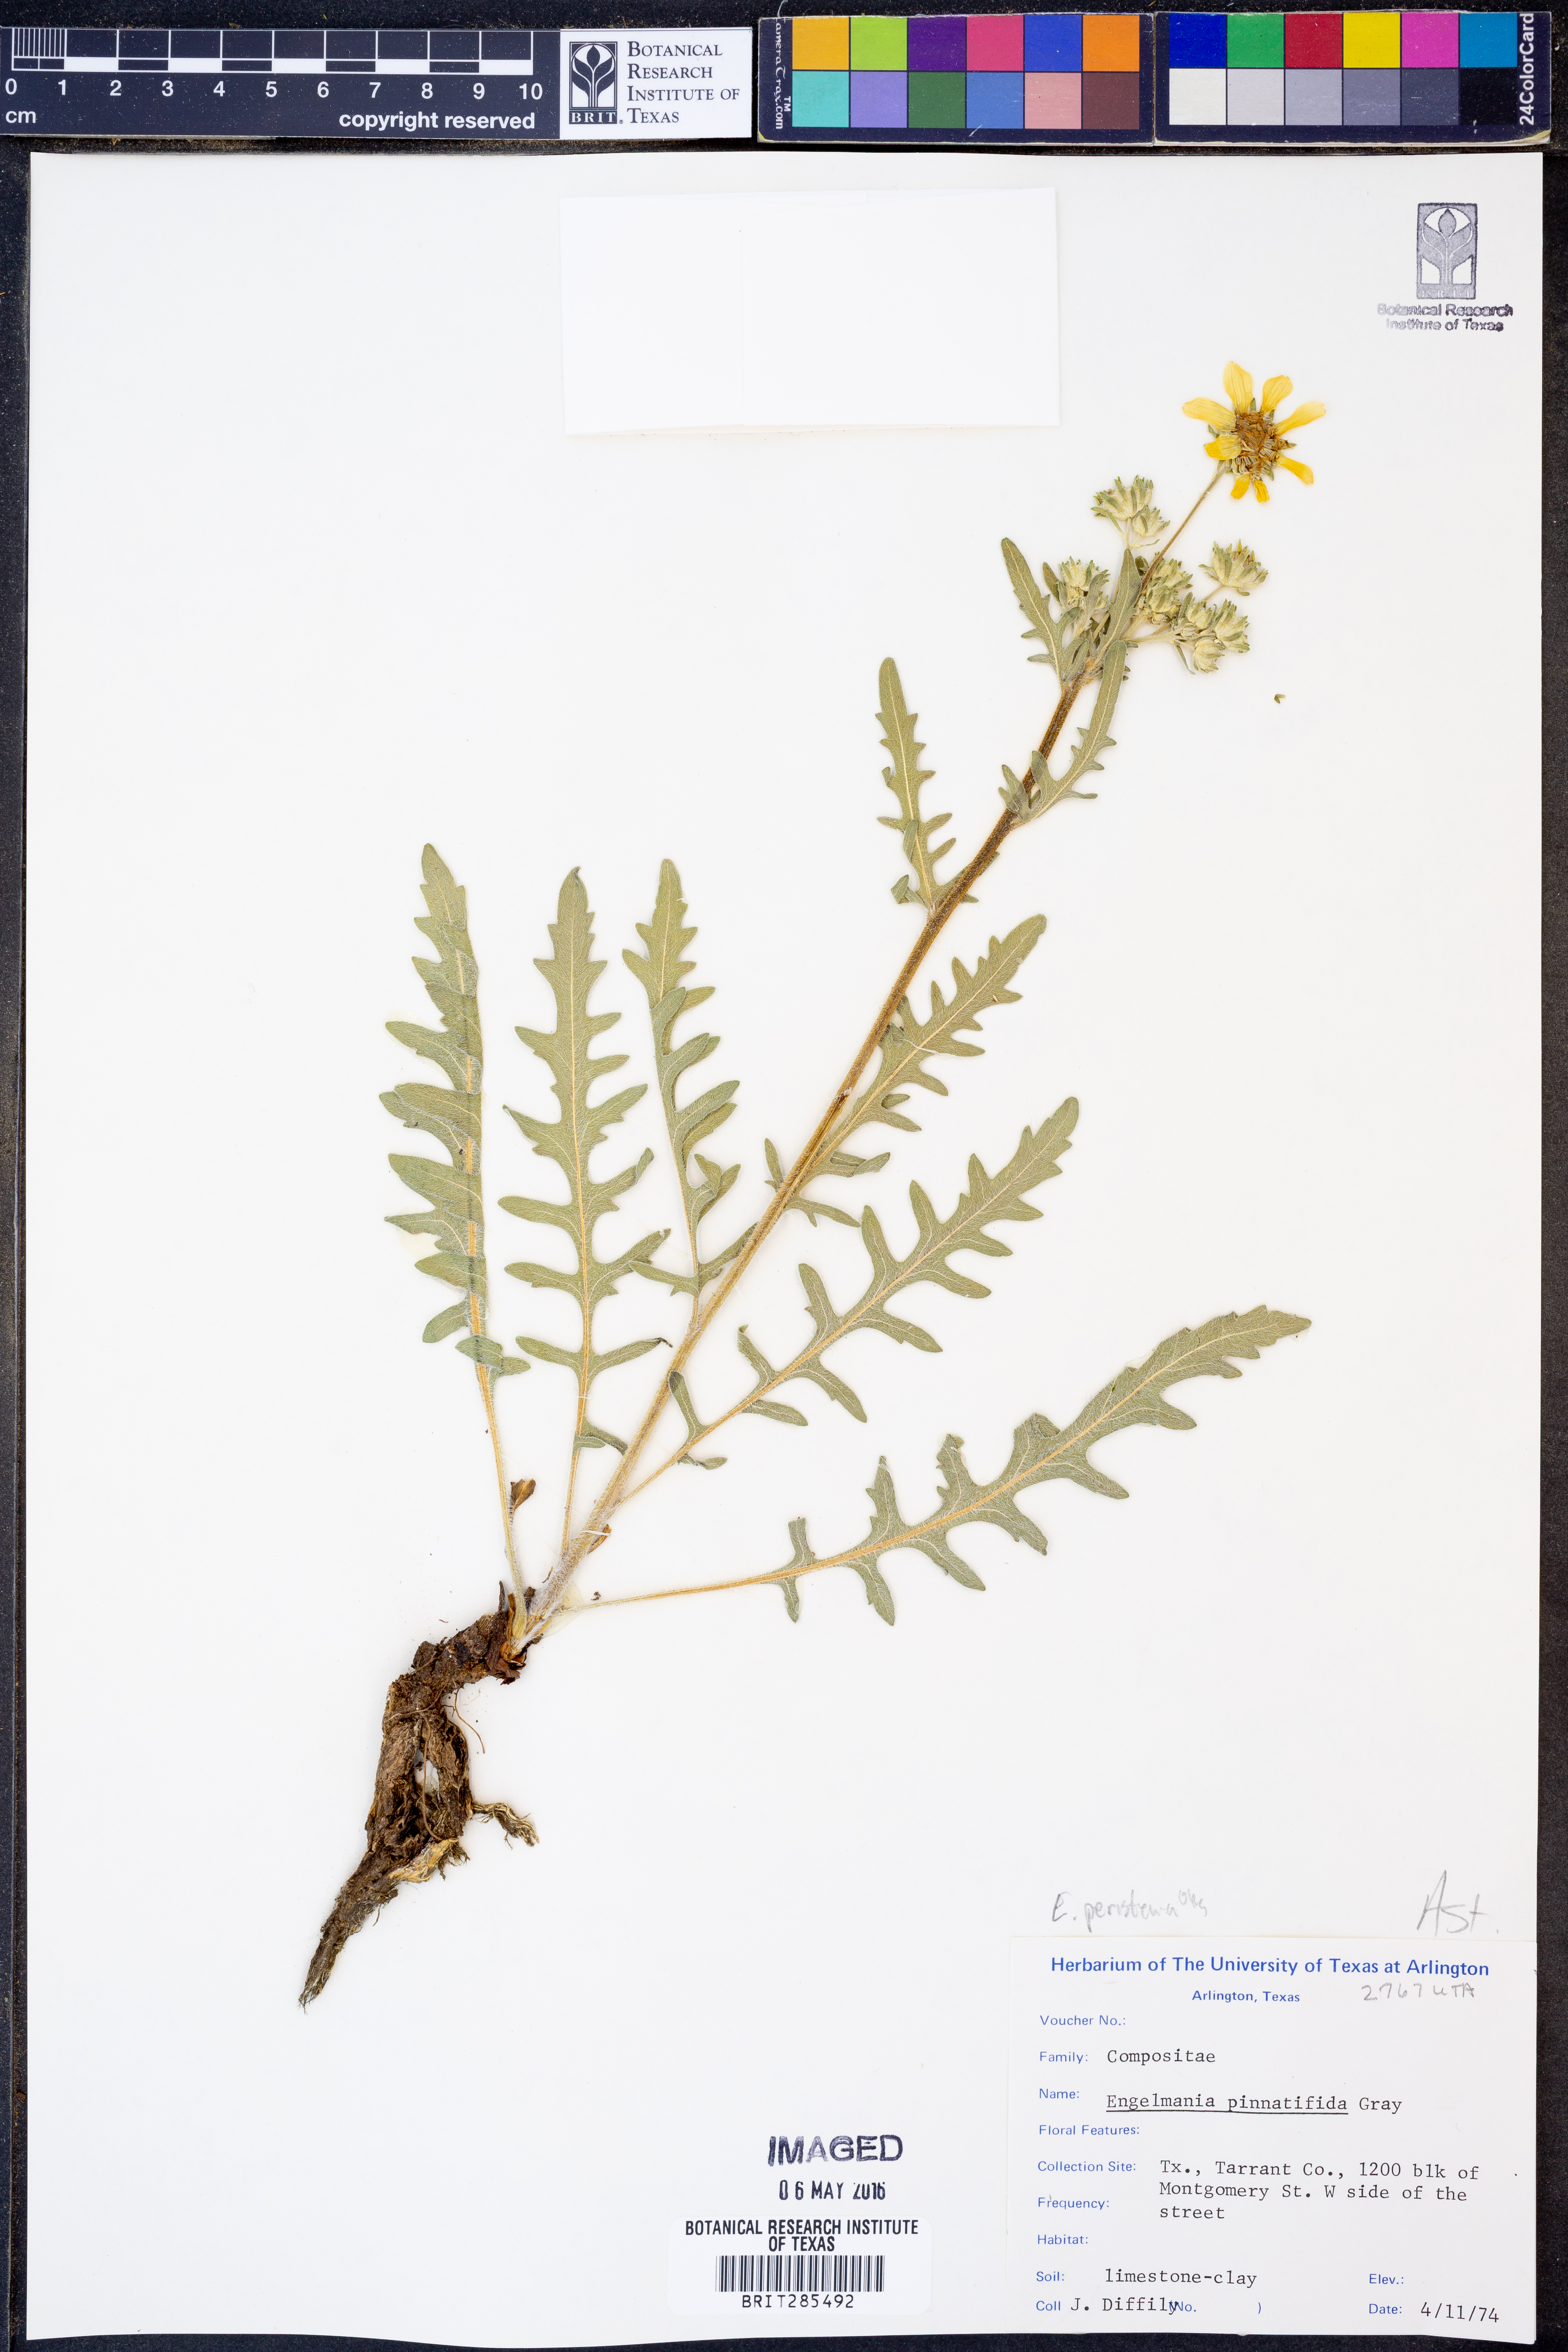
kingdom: Plantae
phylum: Tracheophyta
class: Magnoliopsida
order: Asterales
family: Asteraceae
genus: Engelmannia
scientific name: Engelmannia peristenia
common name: Engelmann's daisy
